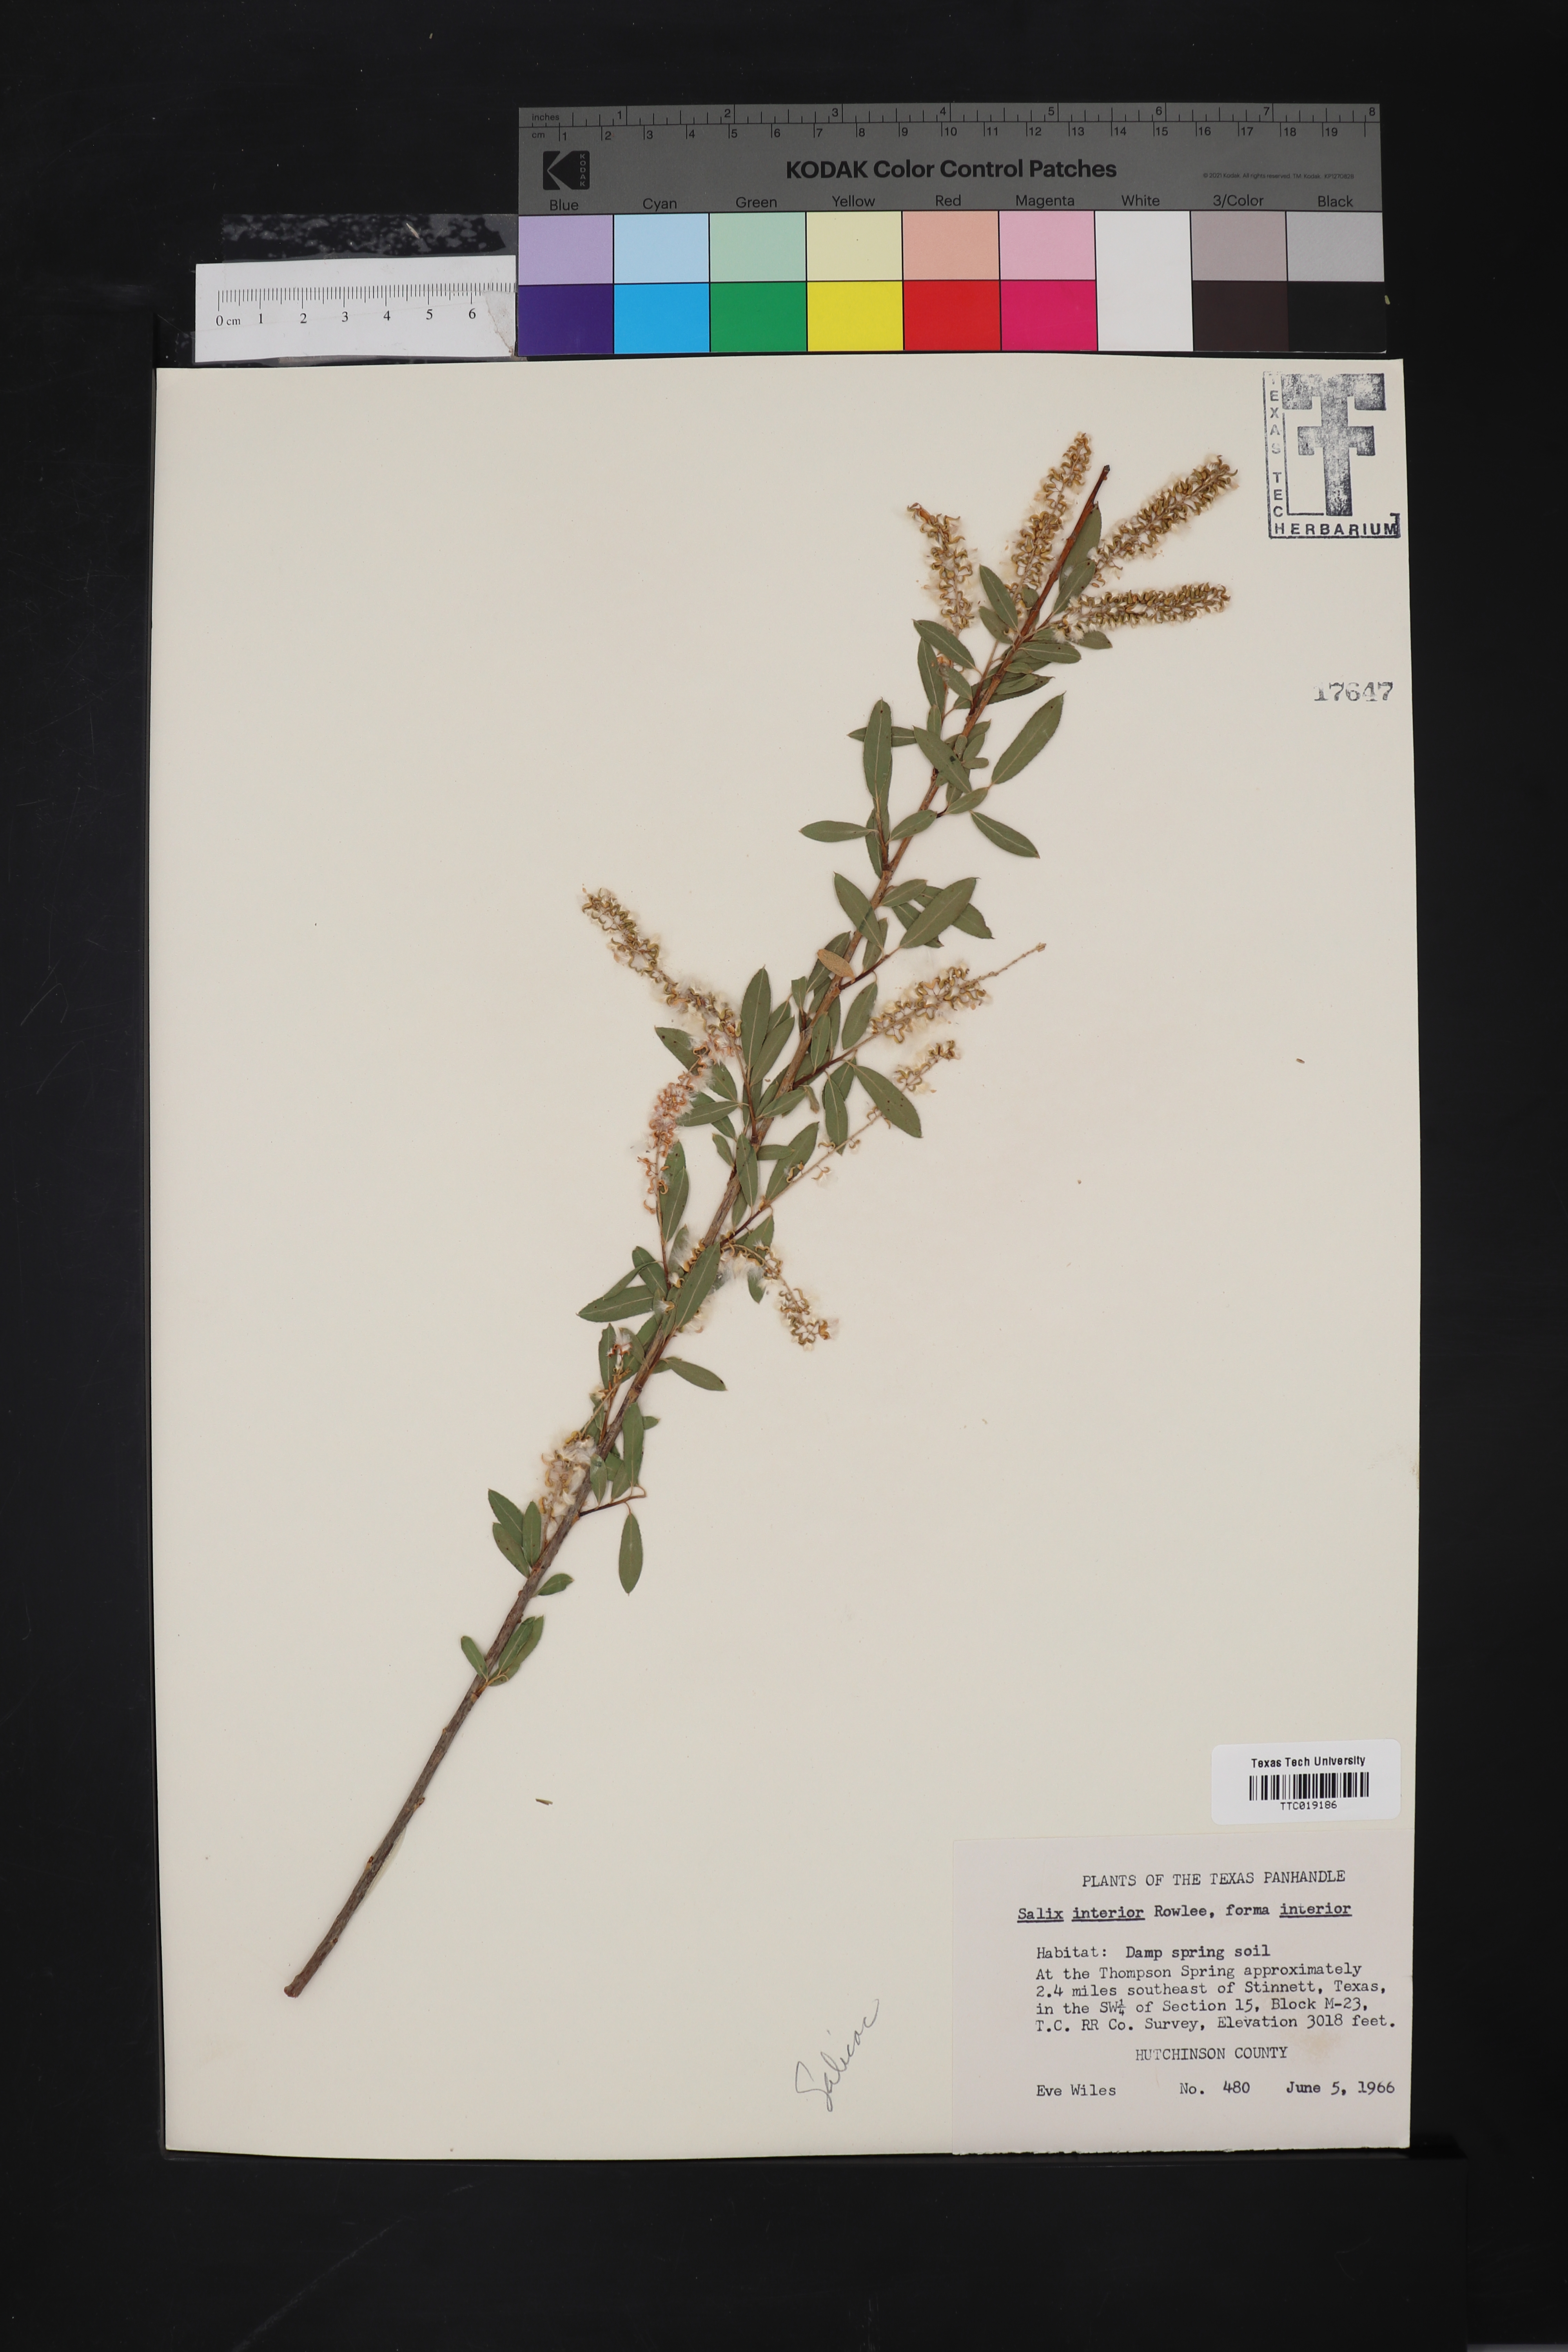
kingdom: Plantae
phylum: Tracheophyta
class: Magnoliopsida
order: Malpighiales
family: Salicaceae
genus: Salix
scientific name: Salix interior
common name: Sandbar willow
